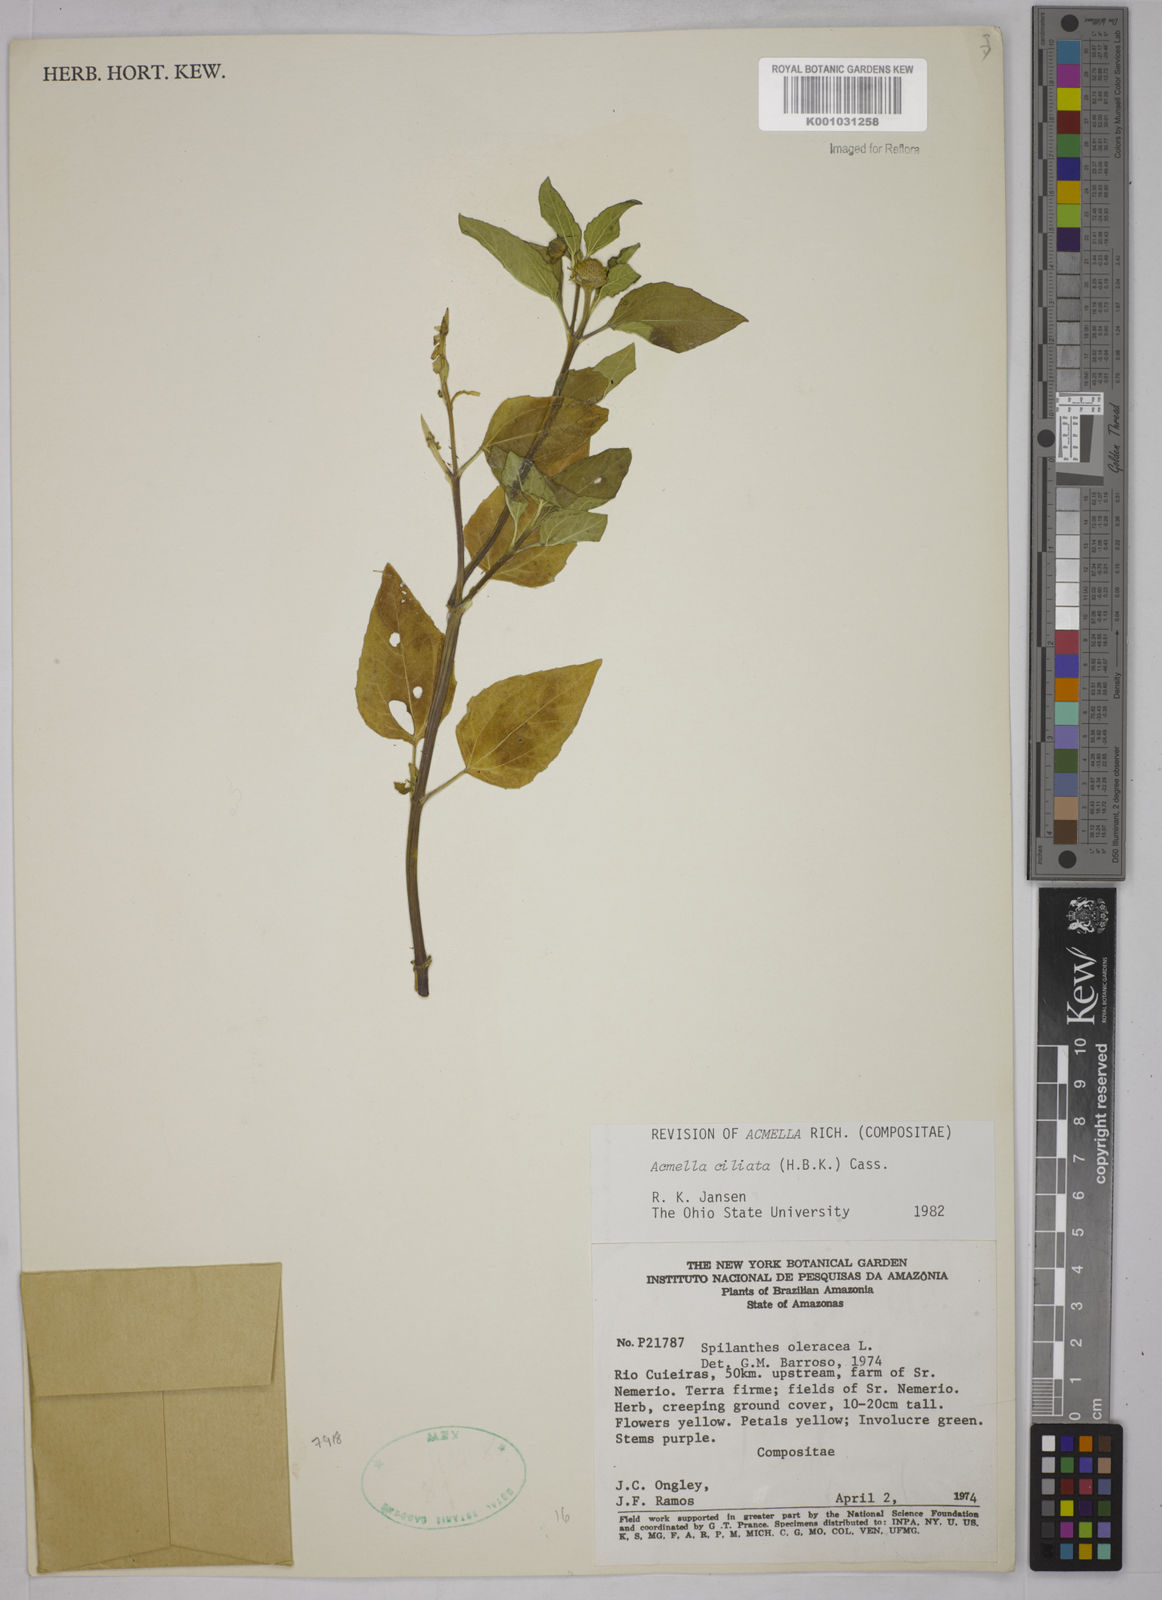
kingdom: Plantae
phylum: Tracheophyta
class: Magnoliopsida
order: Asterales
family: Asteraceae
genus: Acmella
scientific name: Acmella ciliata
